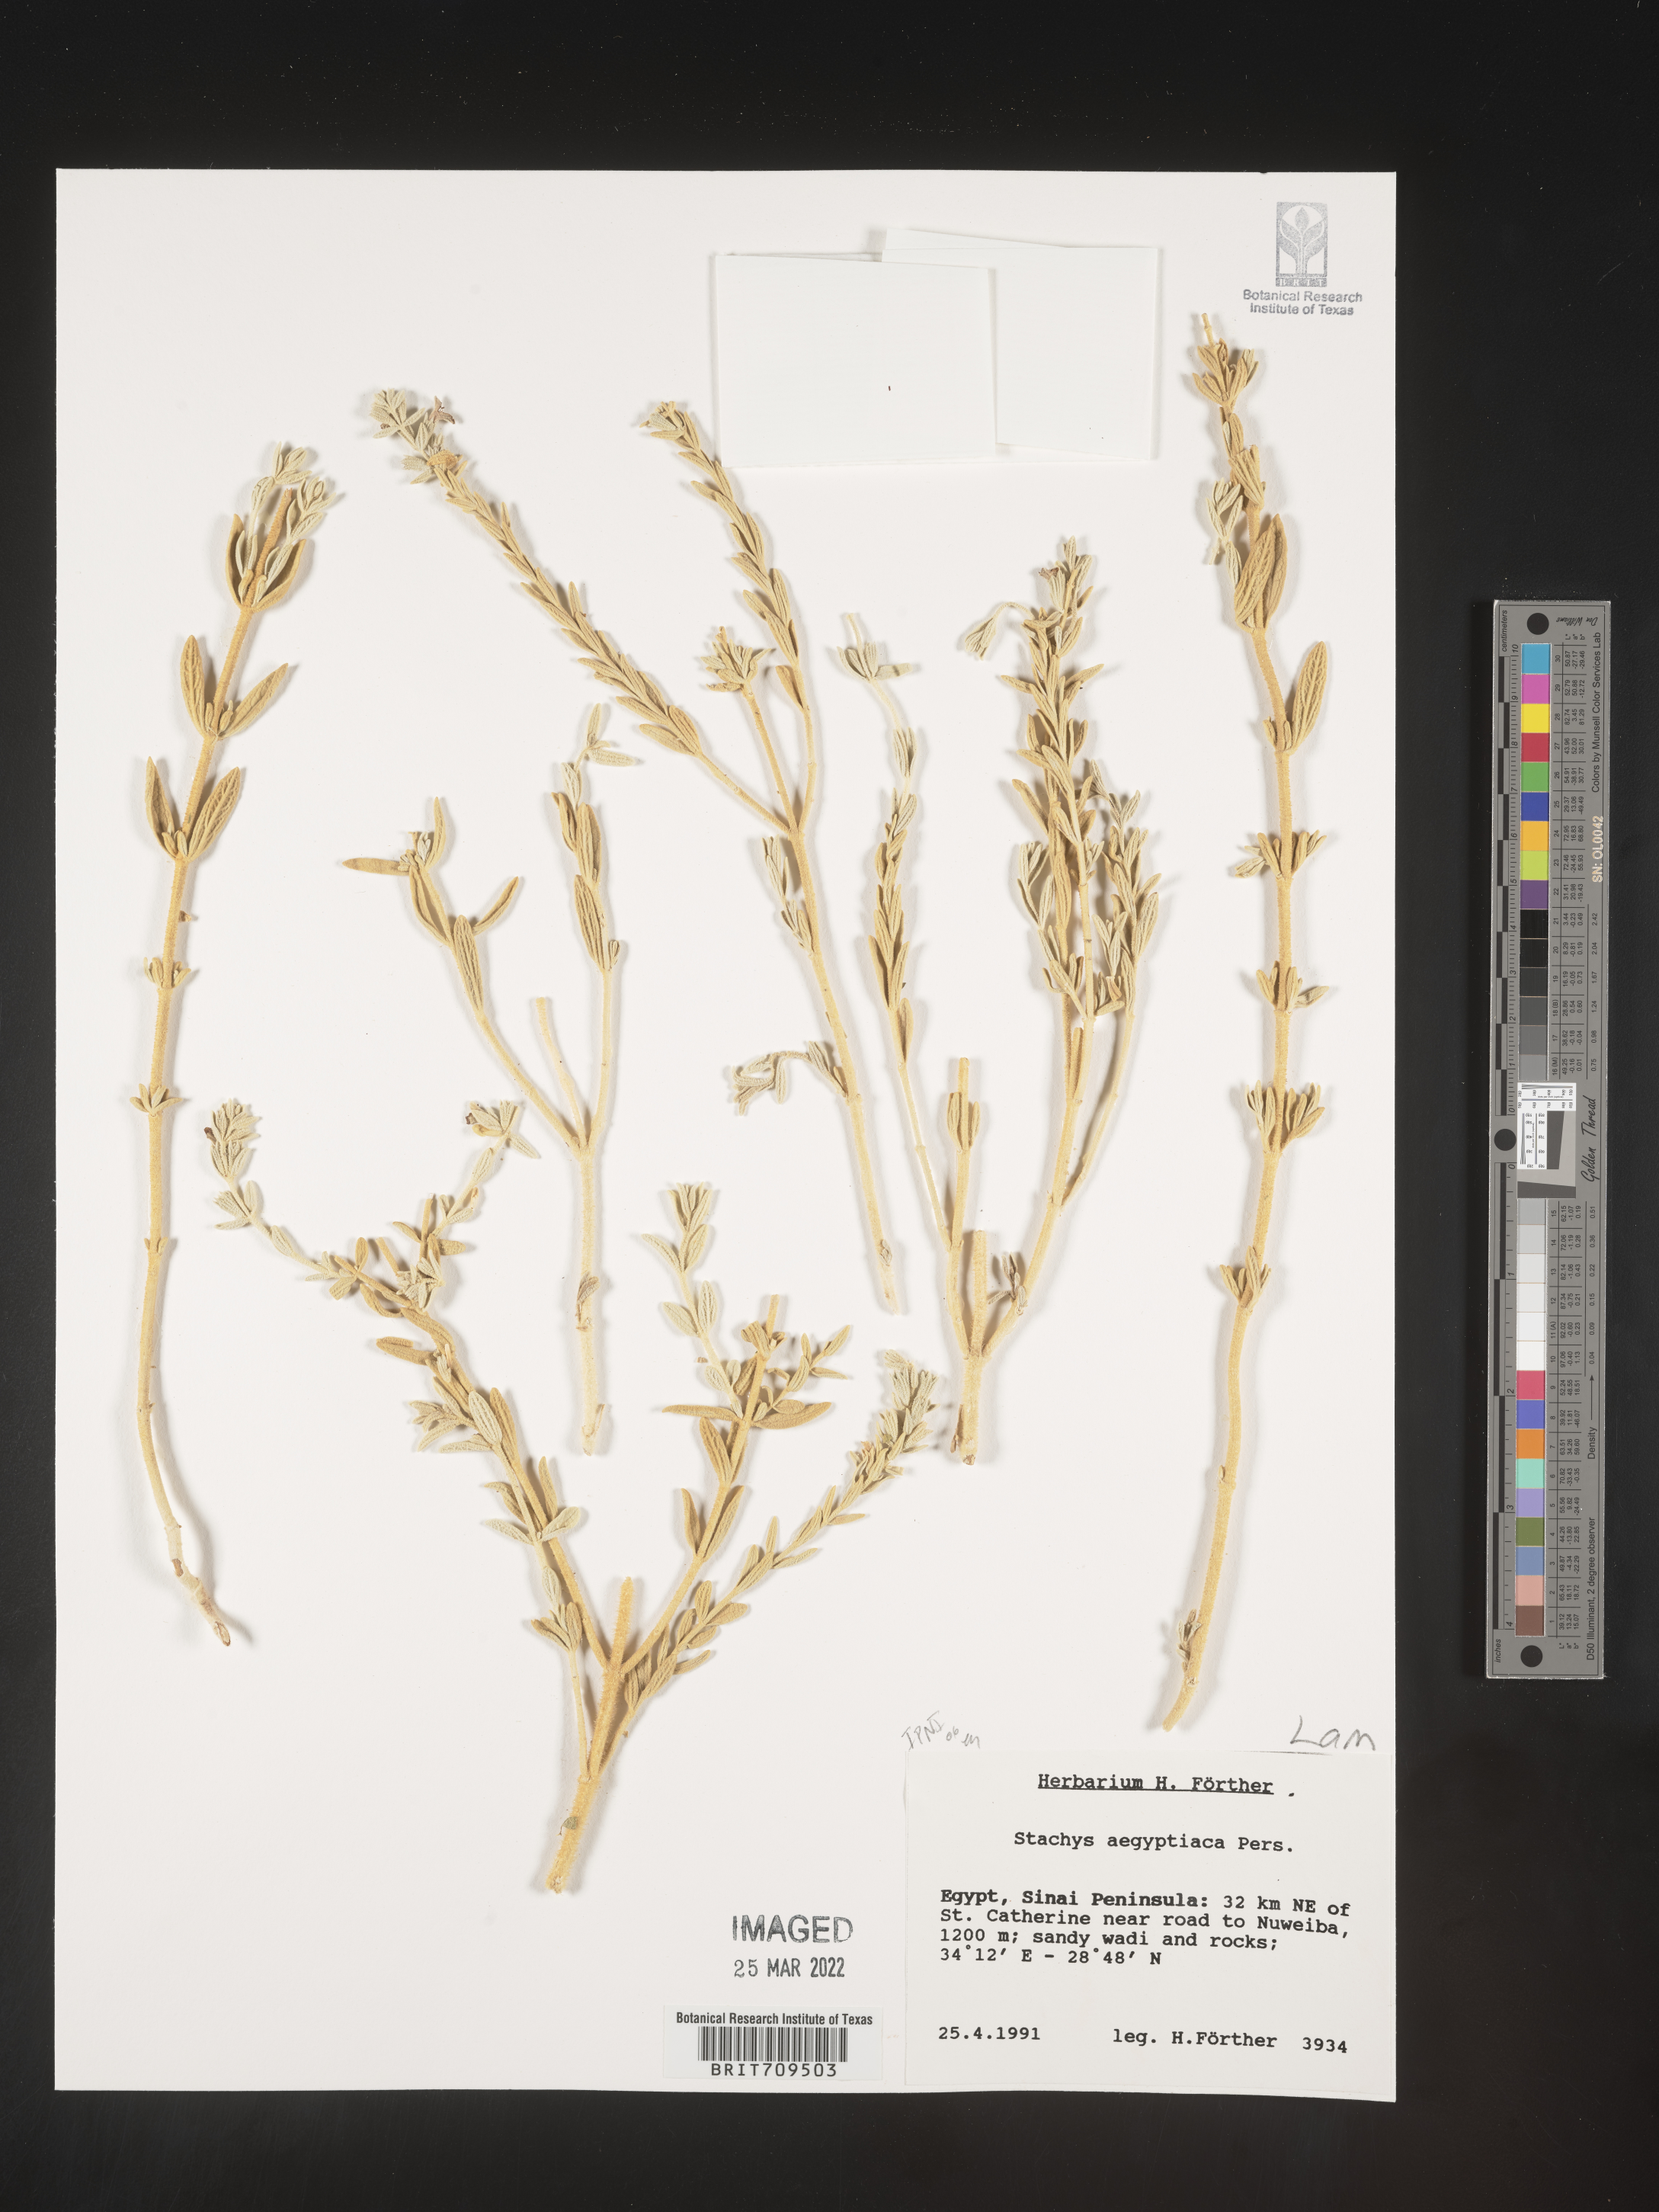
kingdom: Plantae
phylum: Tracheophyta
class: Magnoliopsida
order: Lamiales
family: Lamiaceae
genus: Stachys
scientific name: Stachys
